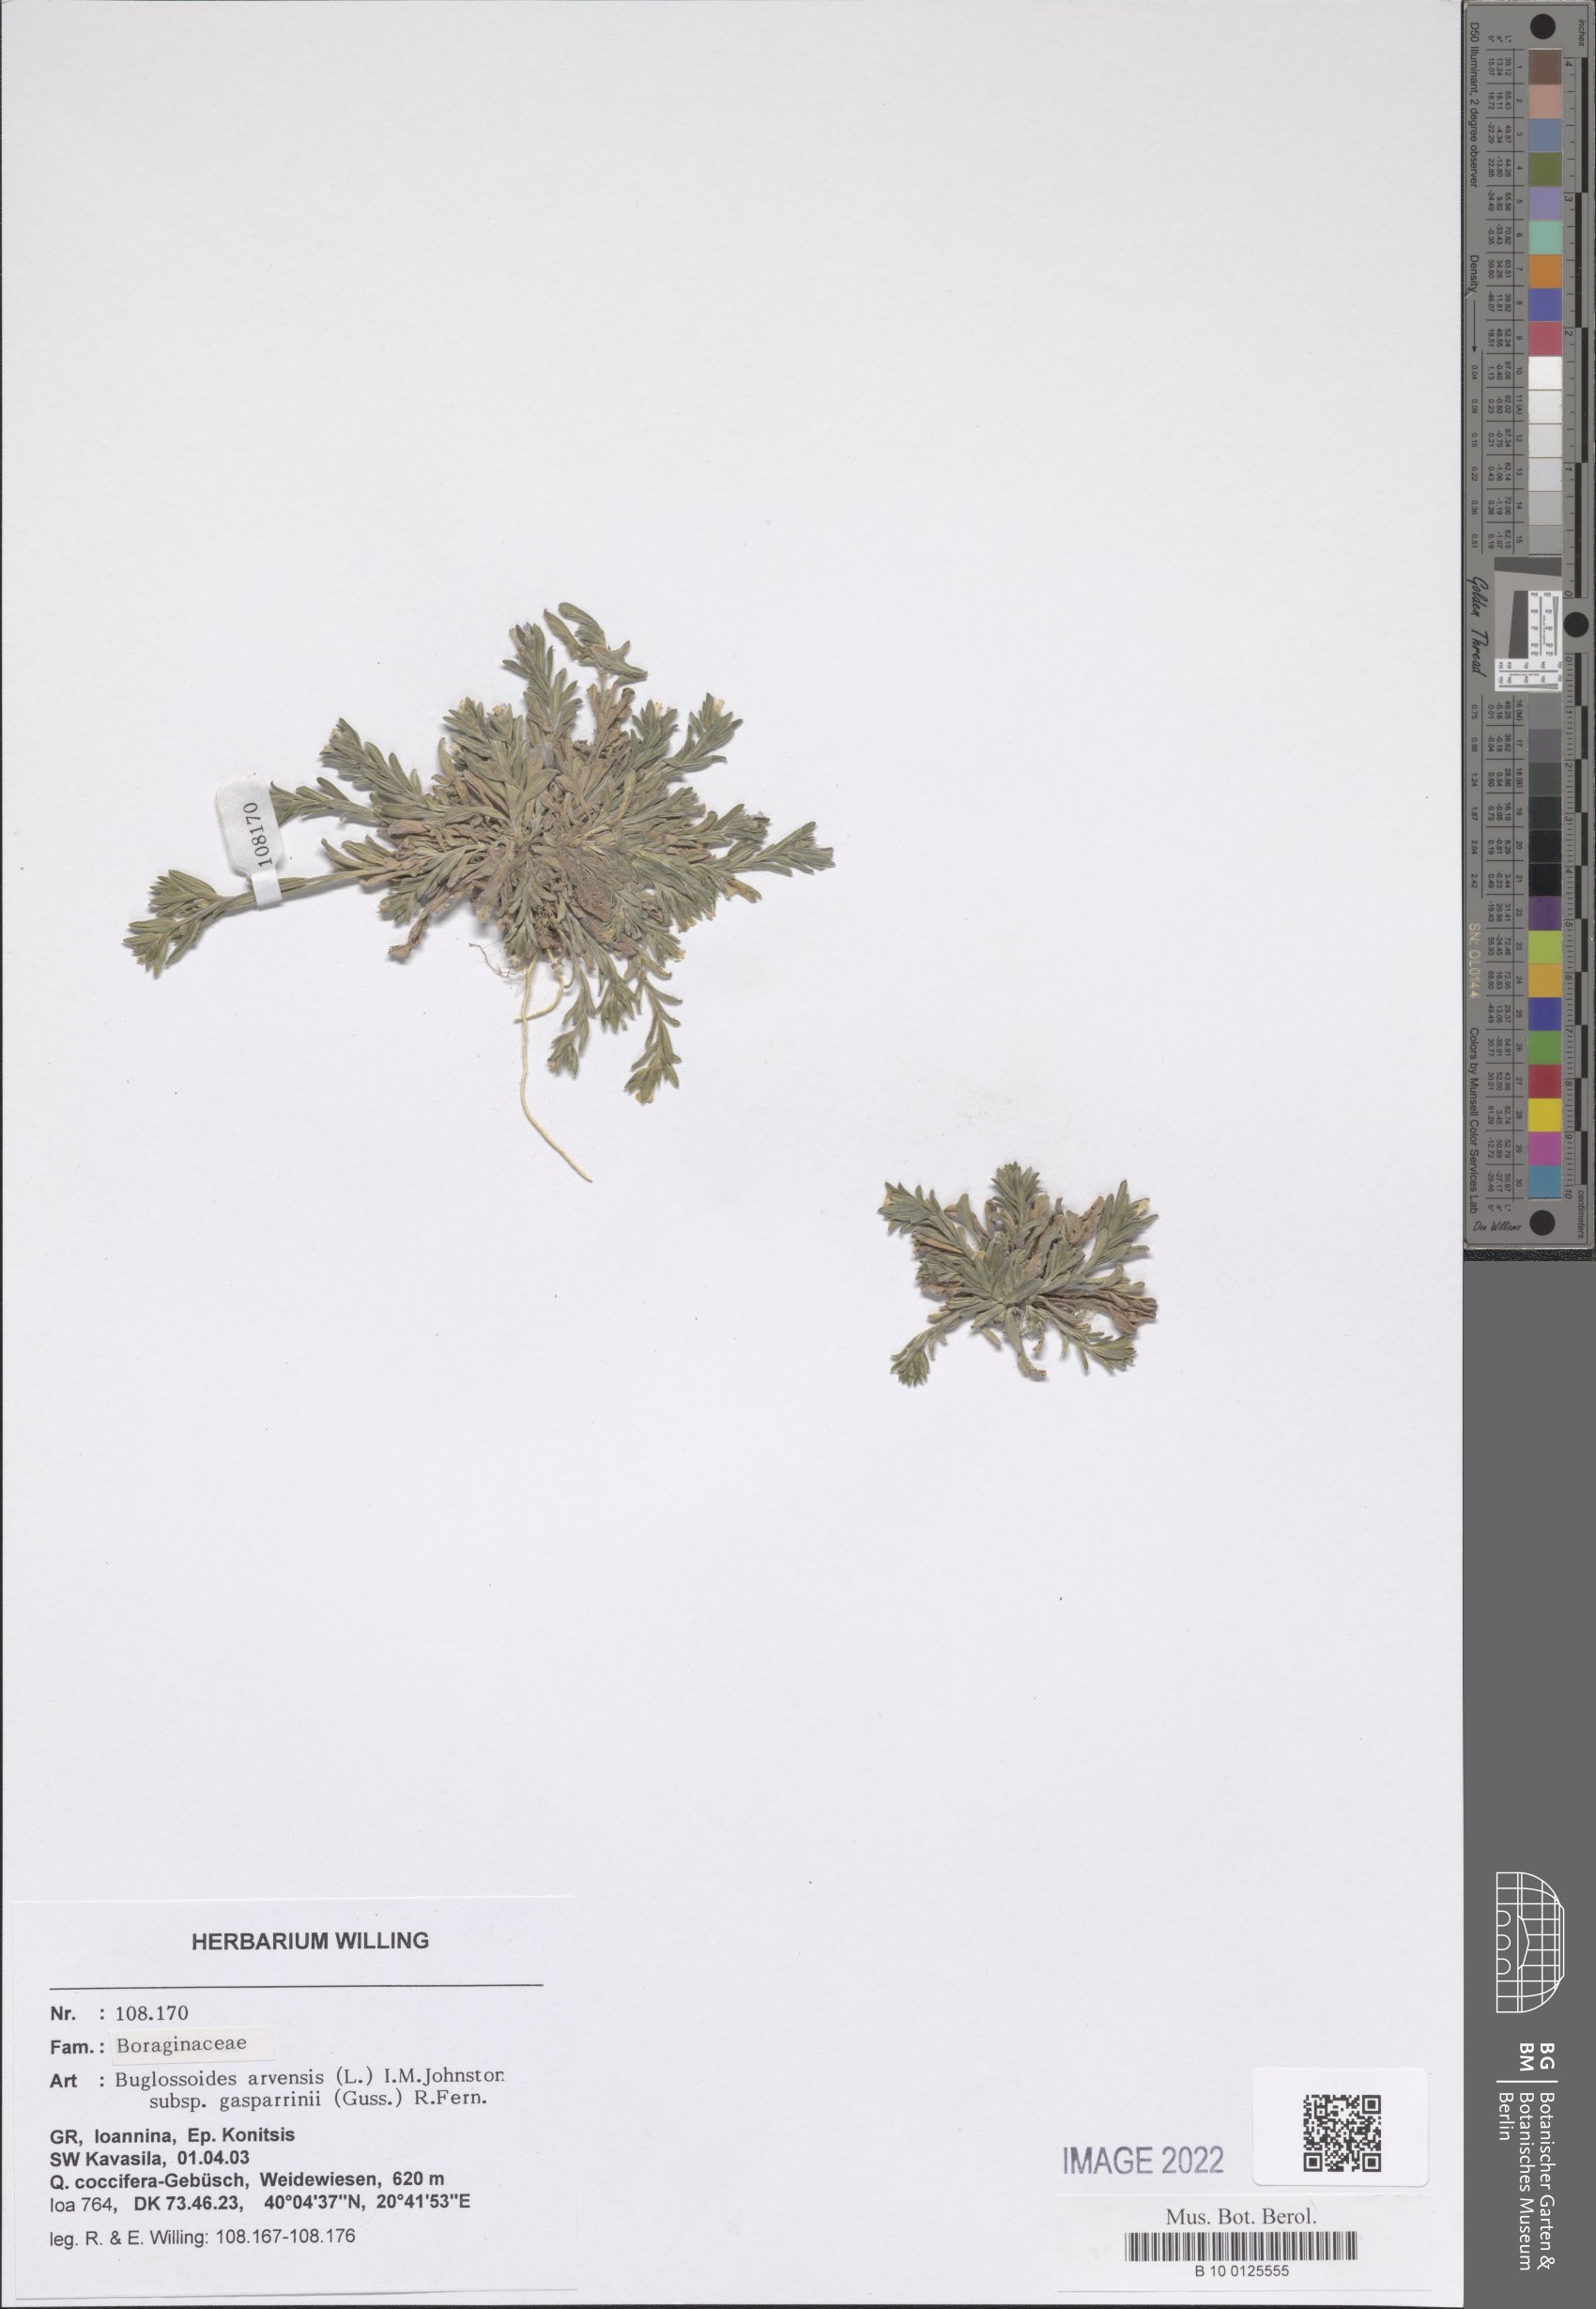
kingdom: Plantae
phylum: Tracheophyta
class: Magnoliopsida
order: Boraginales
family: Boraginaceae
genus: Buglossoides
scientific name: Buglossoides incrassata
